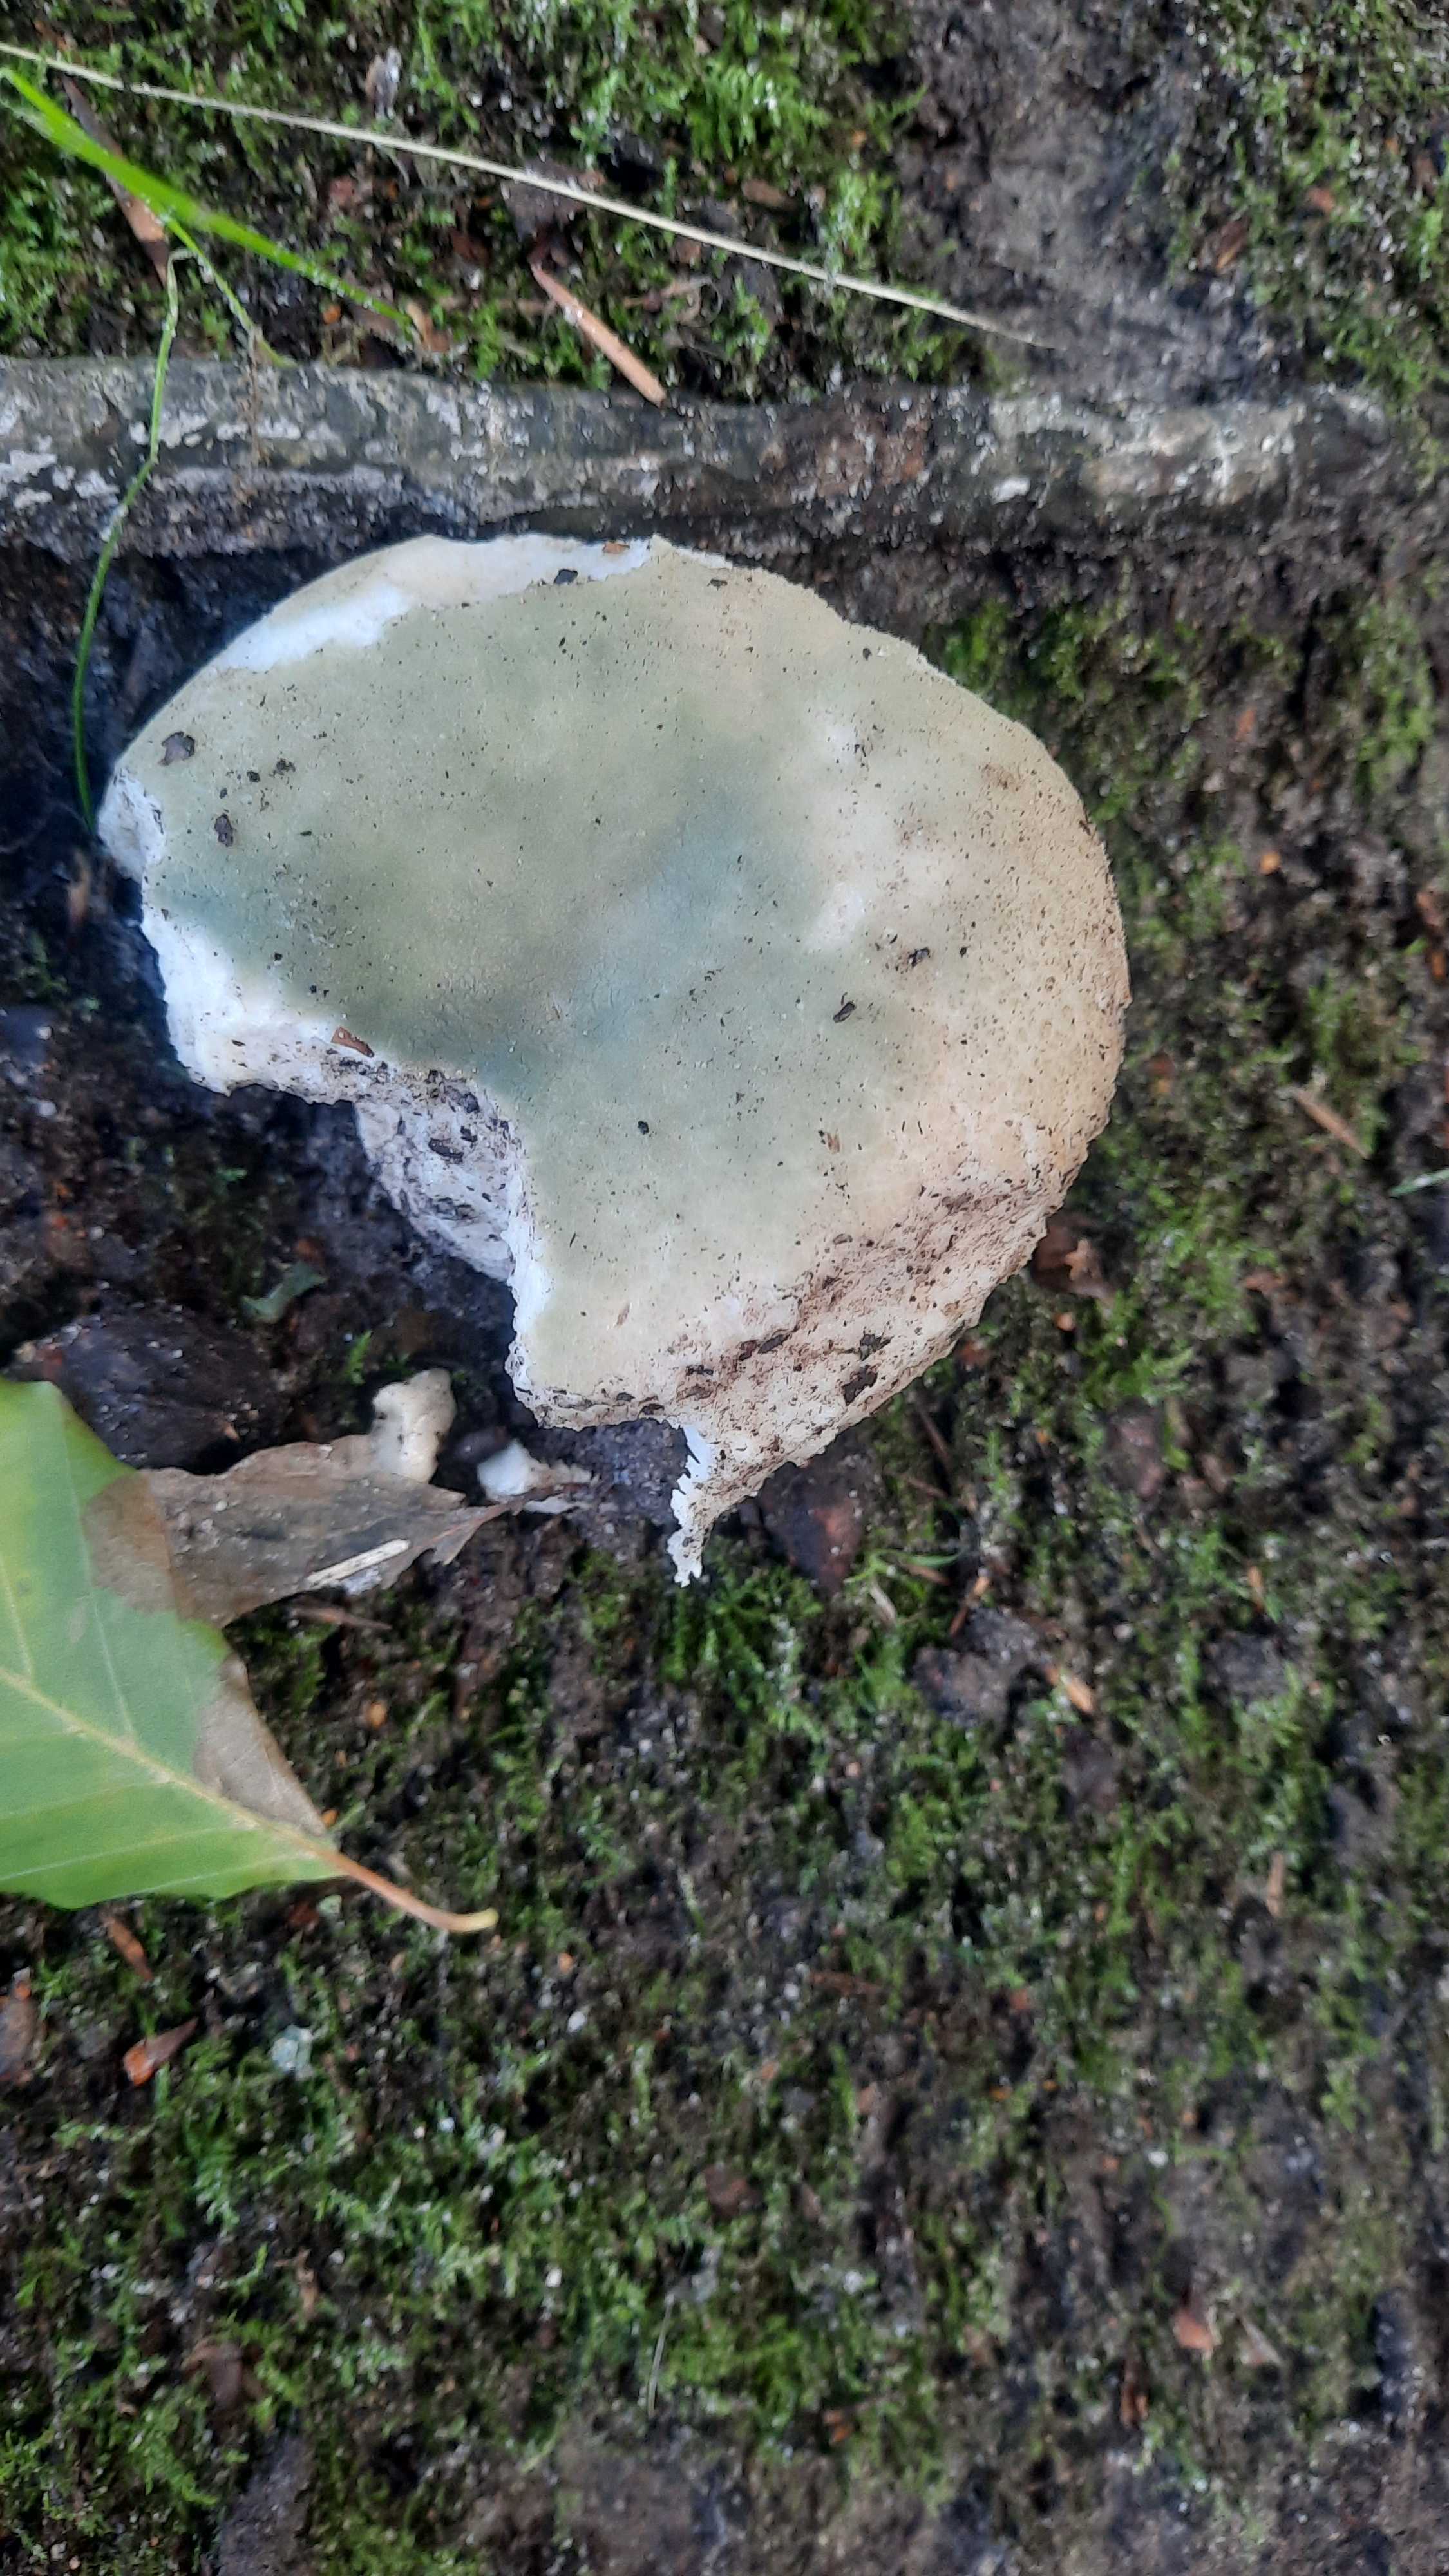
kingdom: Fungi
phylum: Basidiomycota
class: Agaricomycetes
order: Russulales
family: Russulaceae
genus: Russula
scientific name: Russula virescens
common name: spanskgrøn skørhat
